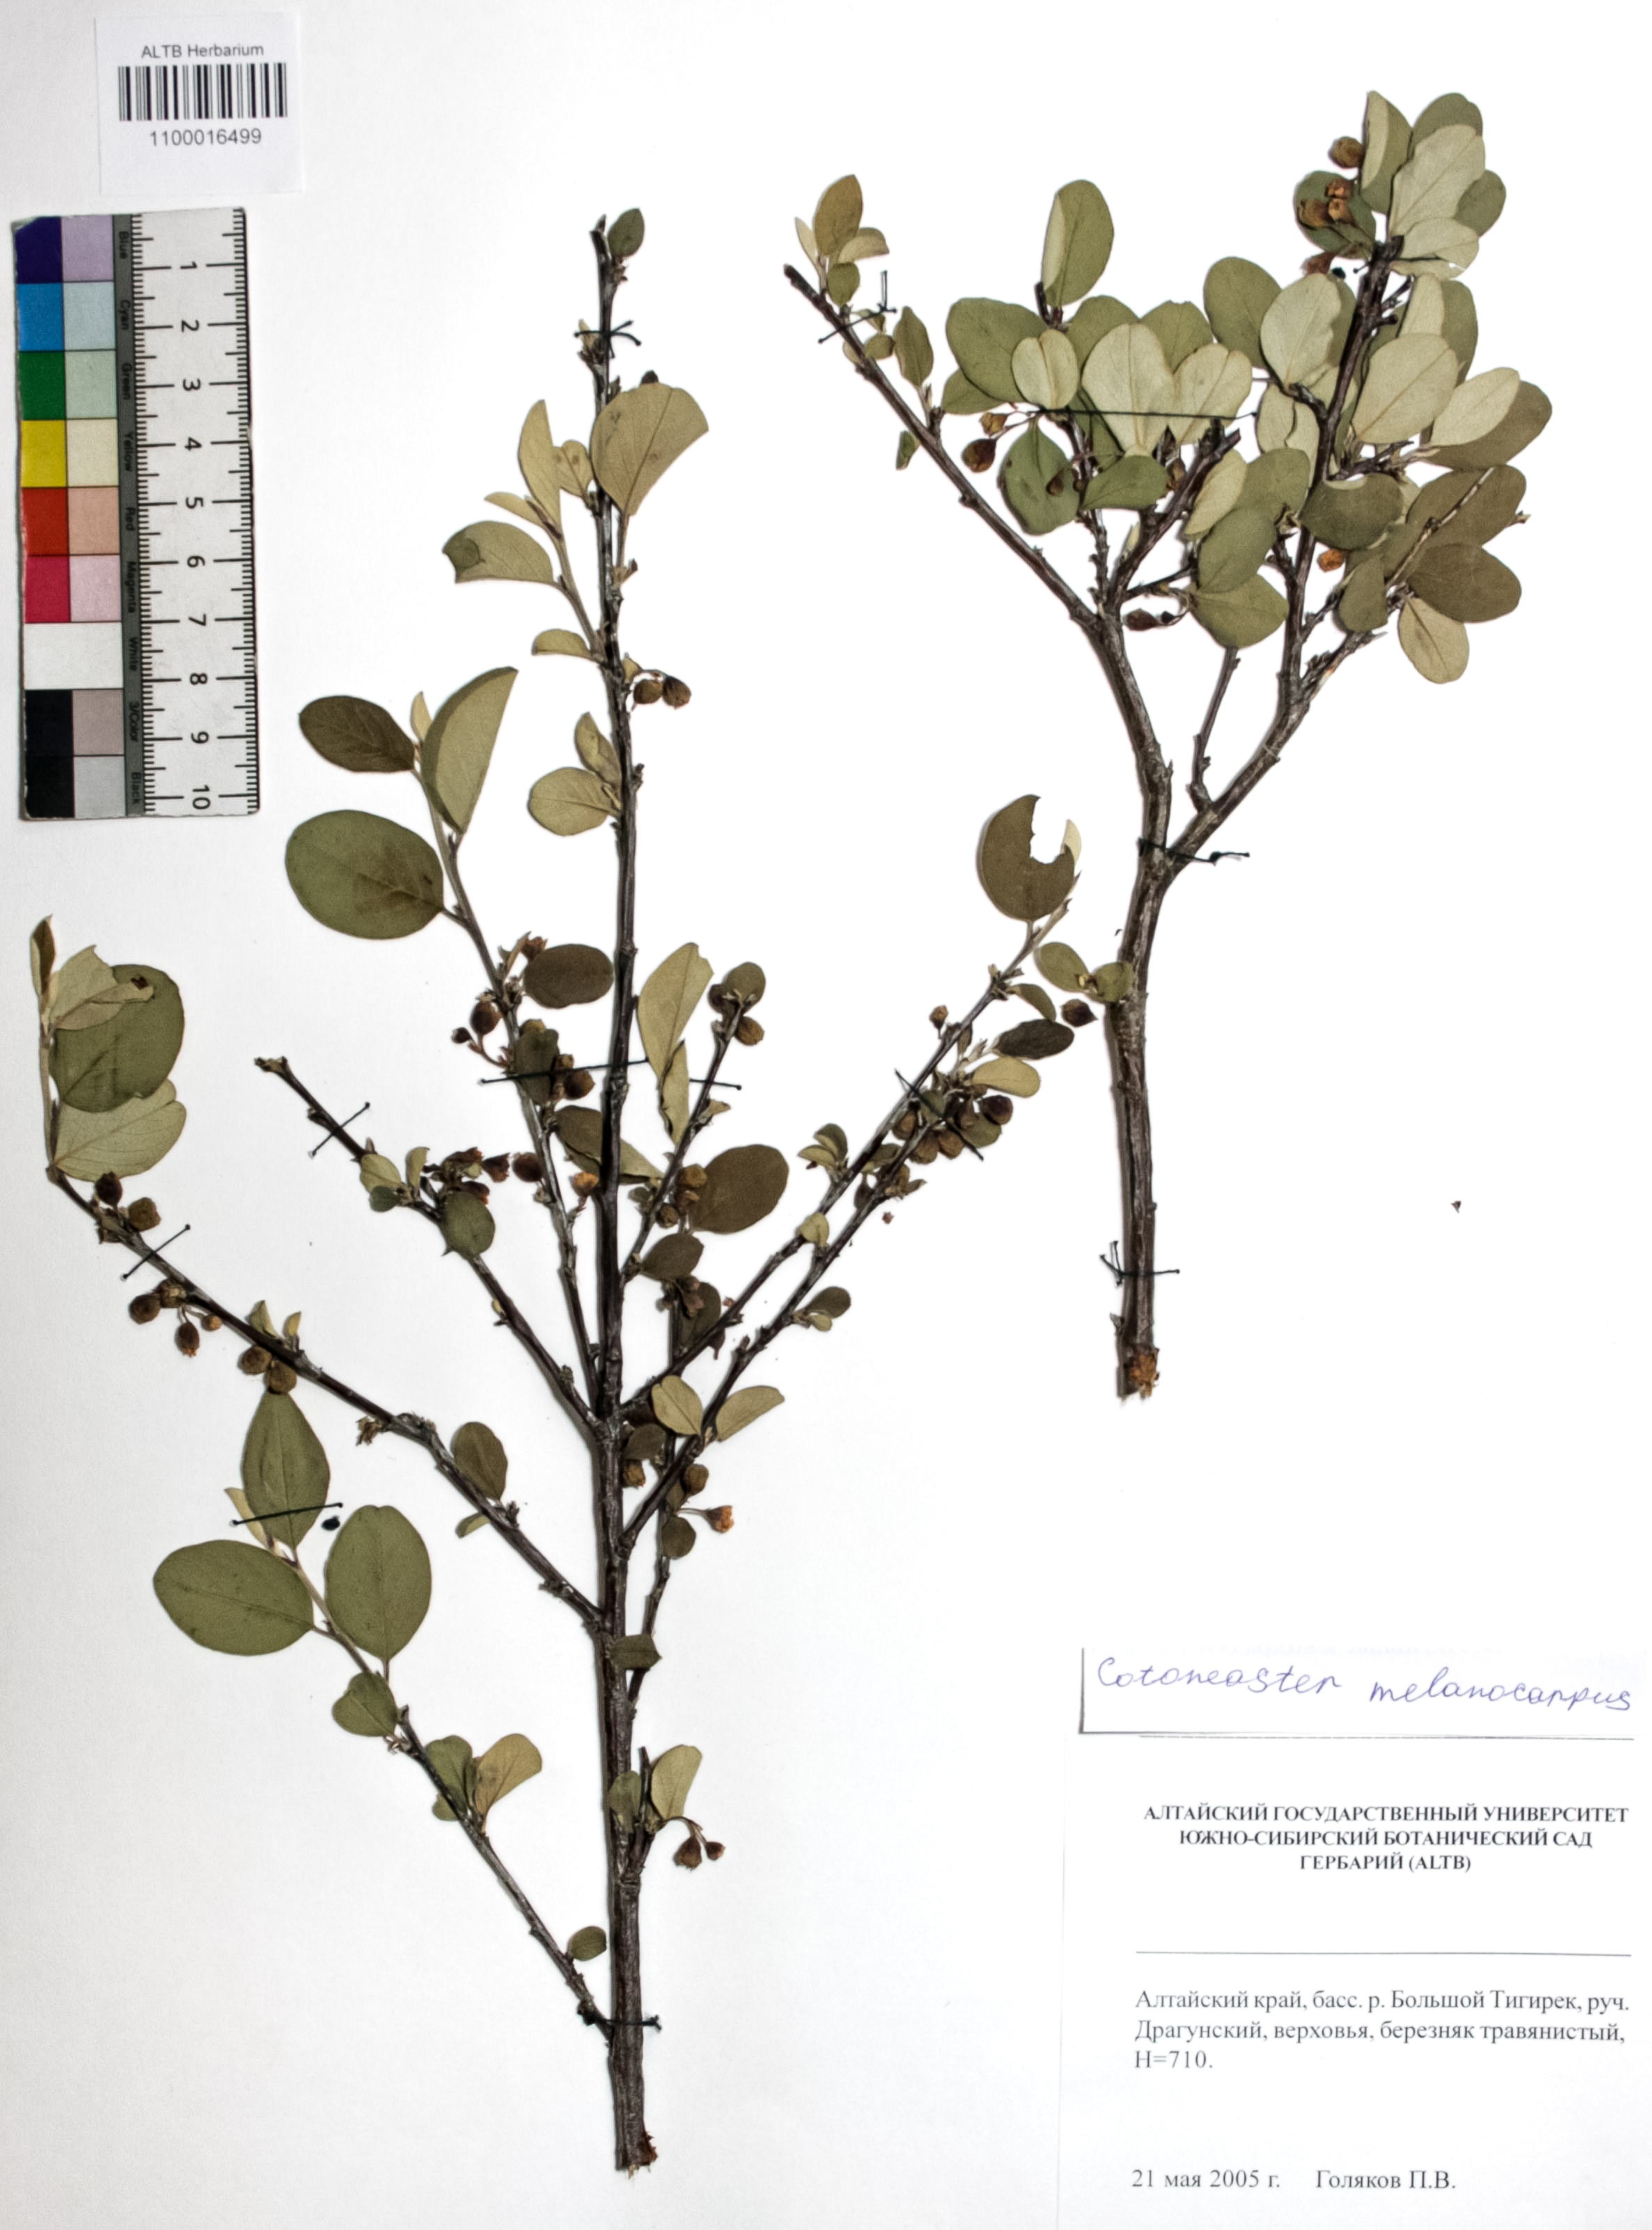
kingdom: Plantae
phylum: Tracheophyta
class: Magnoliopsida
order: Rosales
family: Rosaceae
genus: Cotoneaster
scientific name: Cotoneaster niger
